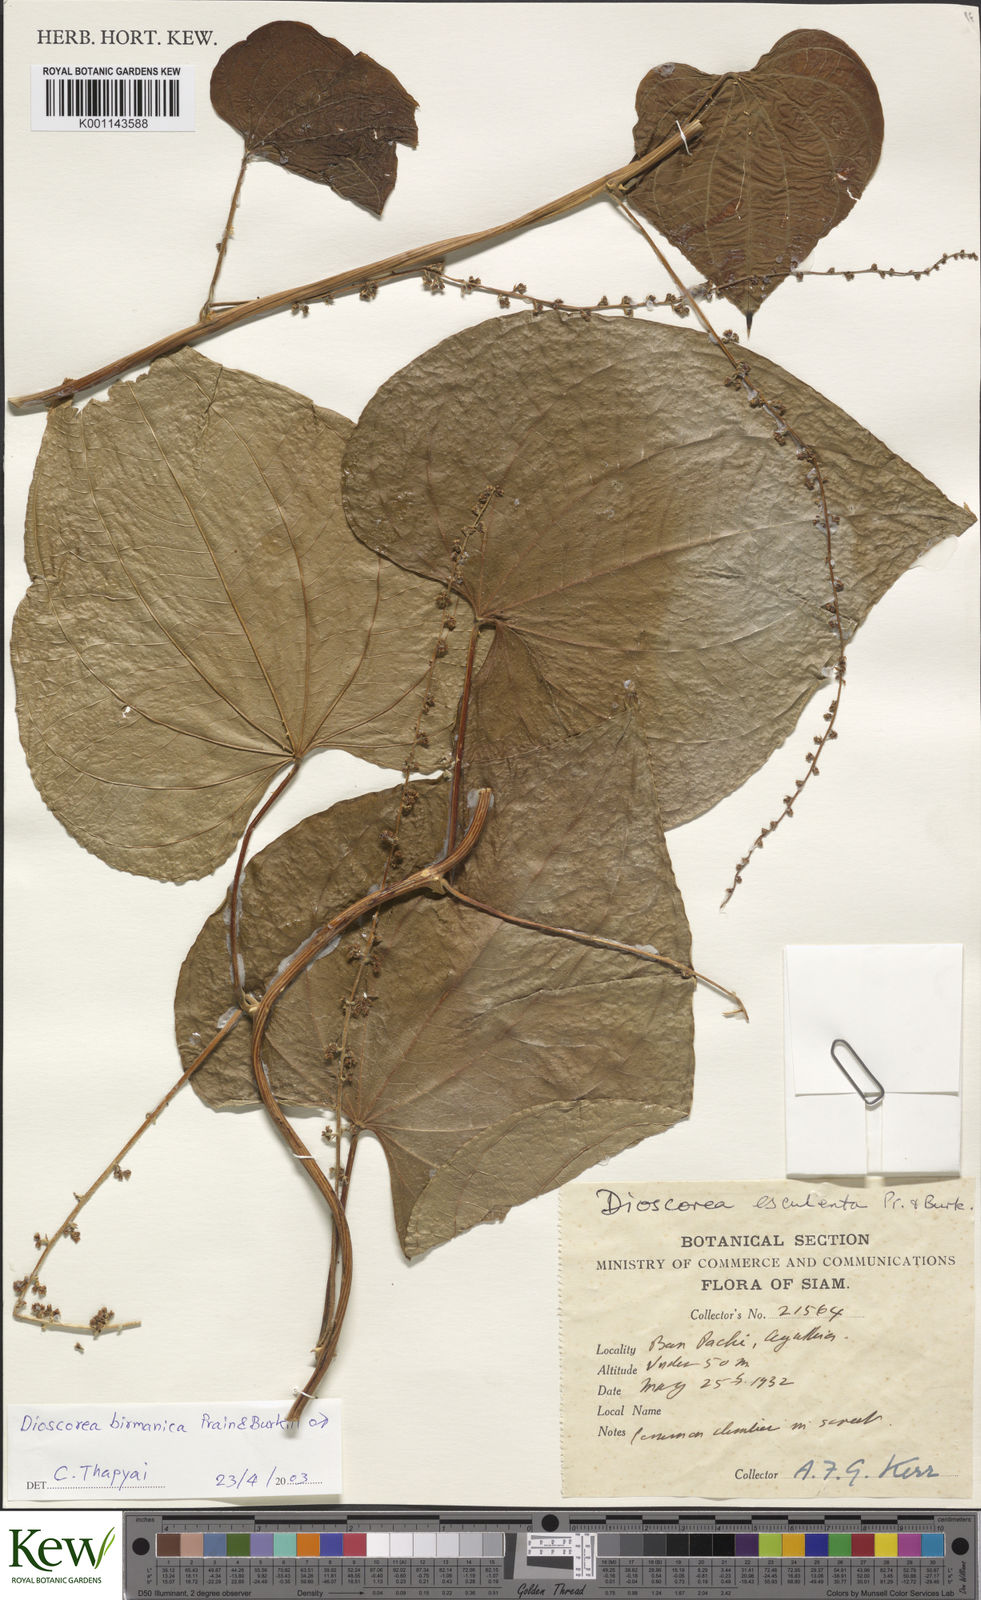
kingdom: Plantae
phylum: Tracheophyta
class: Liliopsida
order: Dioscoreales
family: Dioscoreaceae
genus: Dioscorea
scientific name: Dioscorea birmanica
